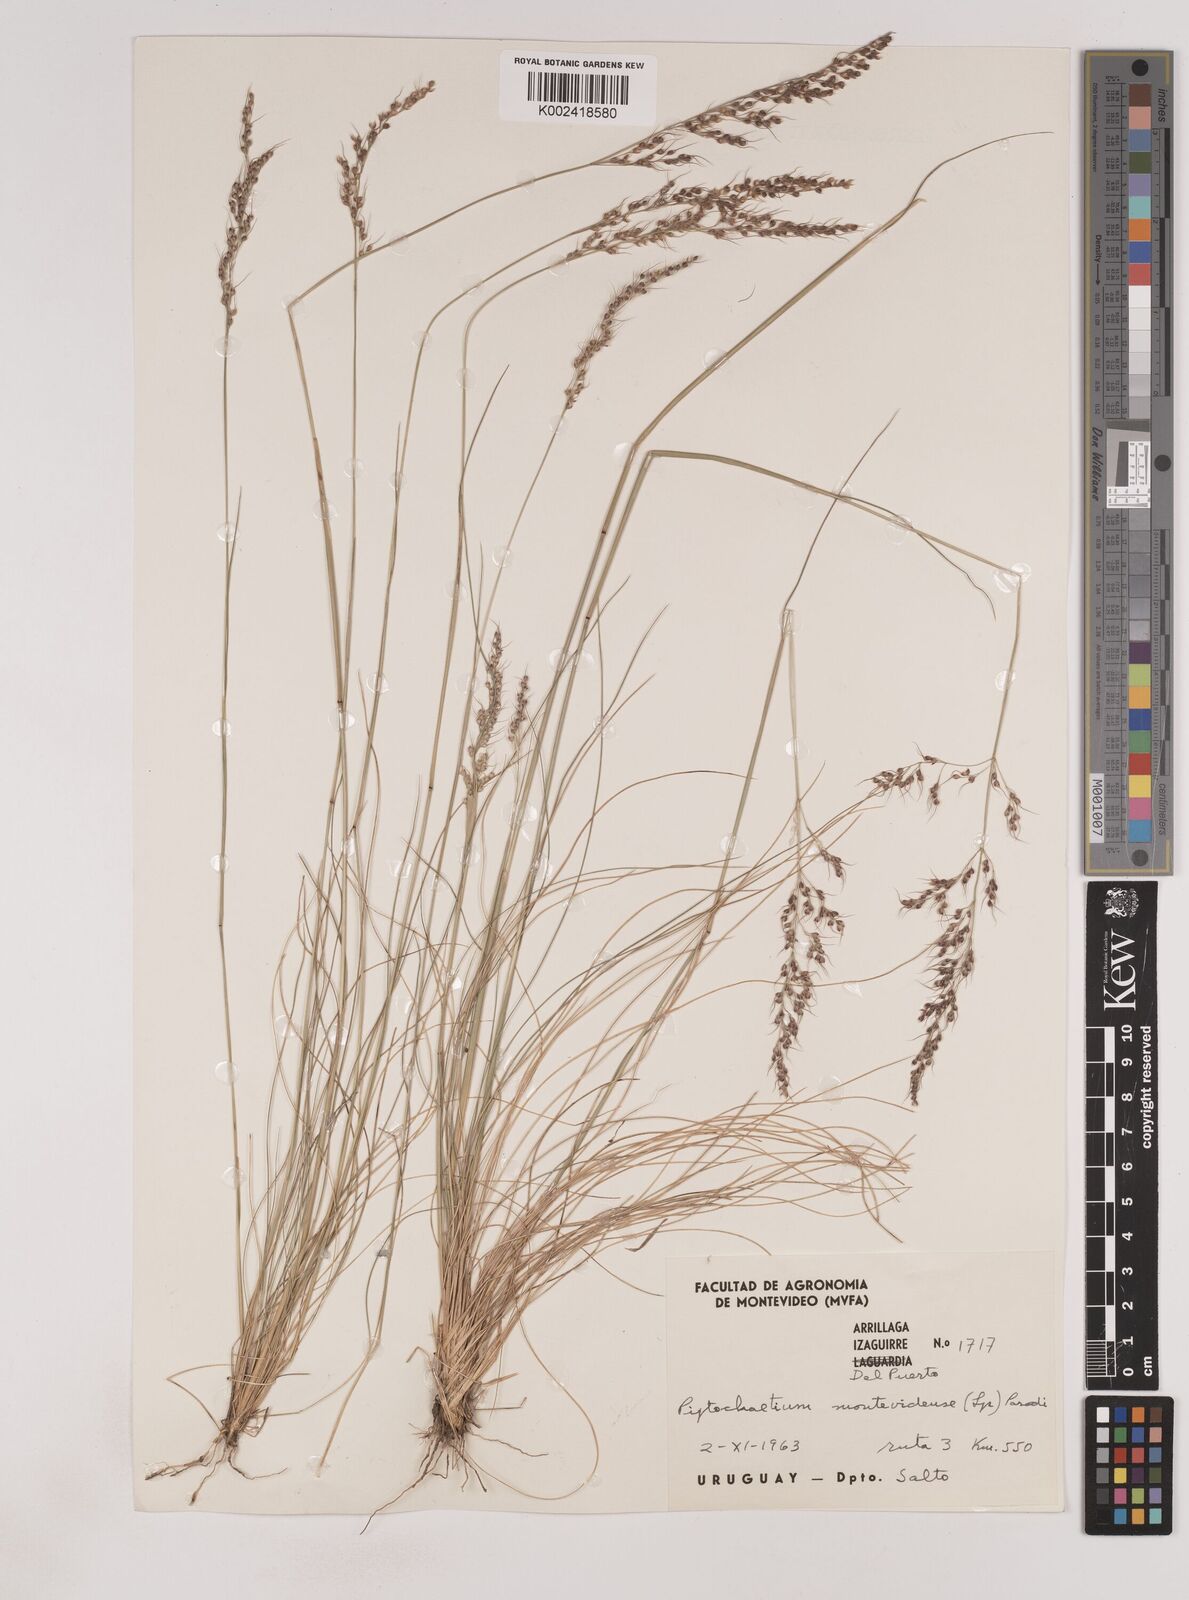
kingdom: Plantae
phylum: Tracheophyta
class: Liliopsida
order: Poales
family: Poaceae
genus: Piptochaetium
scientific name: Piptochaetium montevidense
